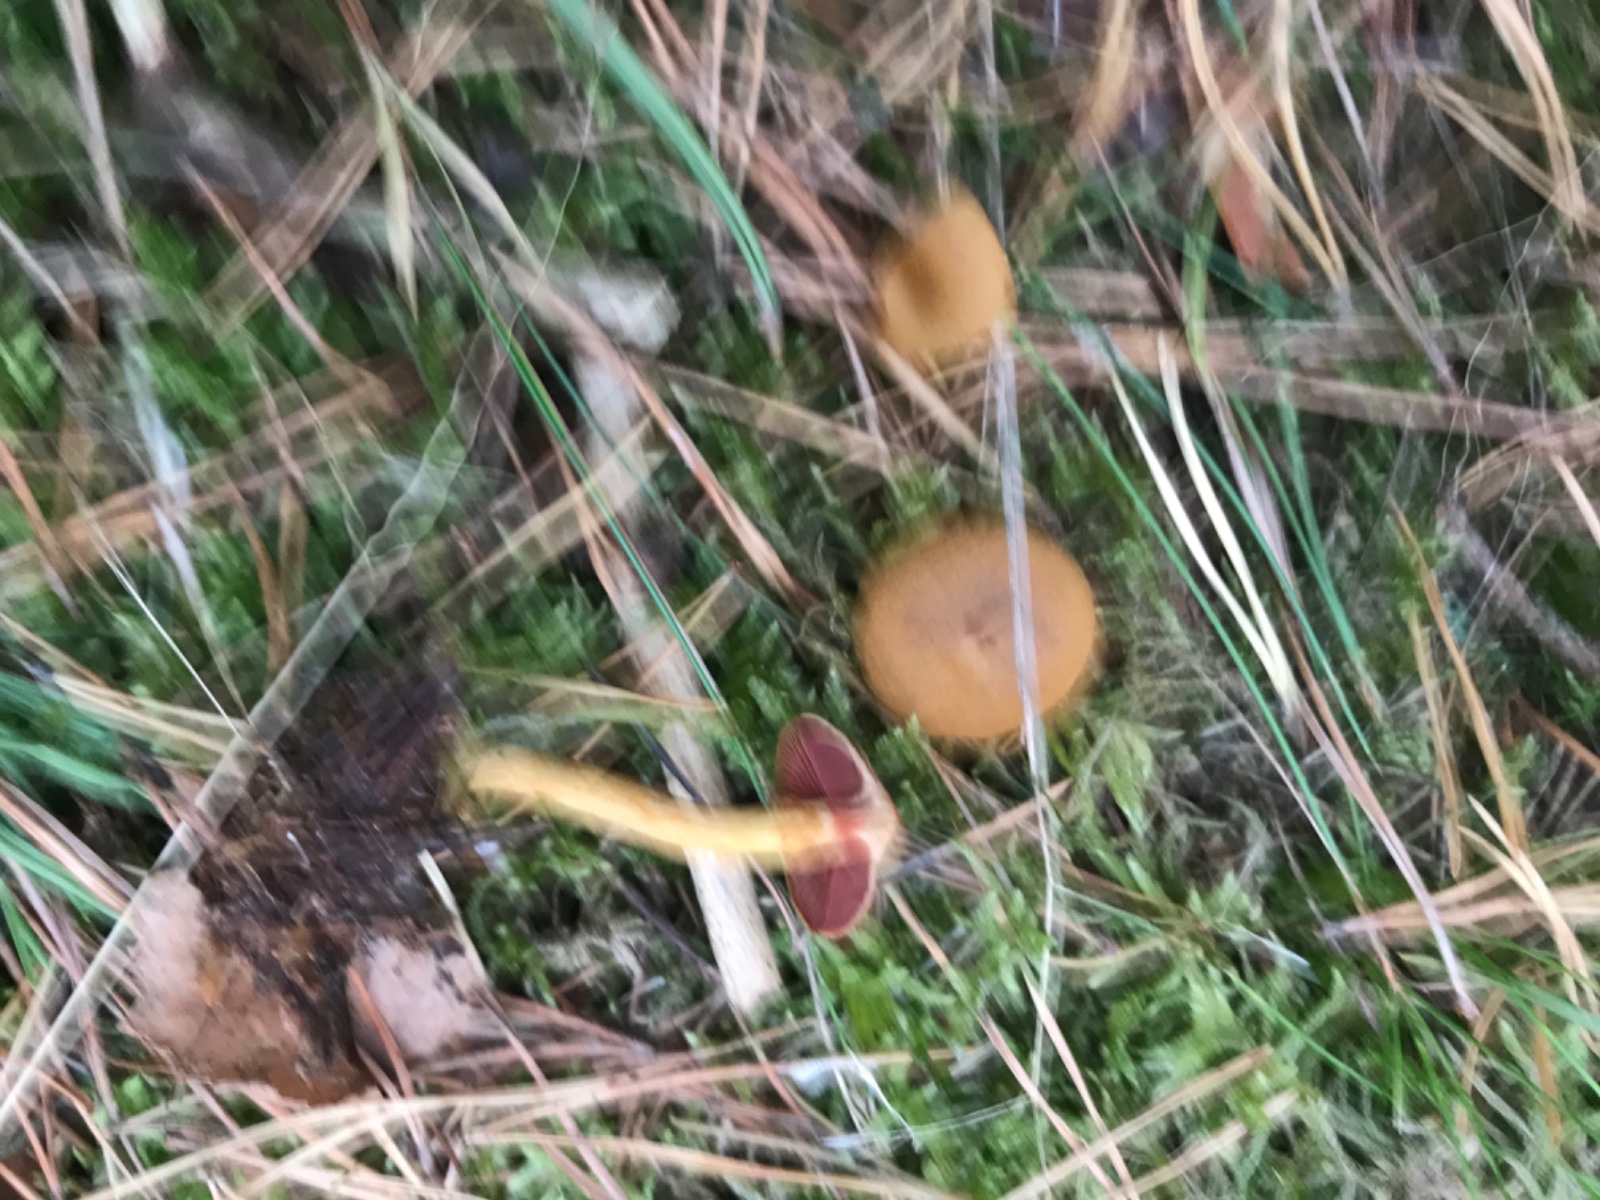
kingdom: Fungi
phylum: Basidiomycota
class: Agaricomycetes
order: Agaricales
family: Cortinariaceae
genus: Cortinarius
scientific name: Cortinarius
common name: cinnoberbladet slørhat
